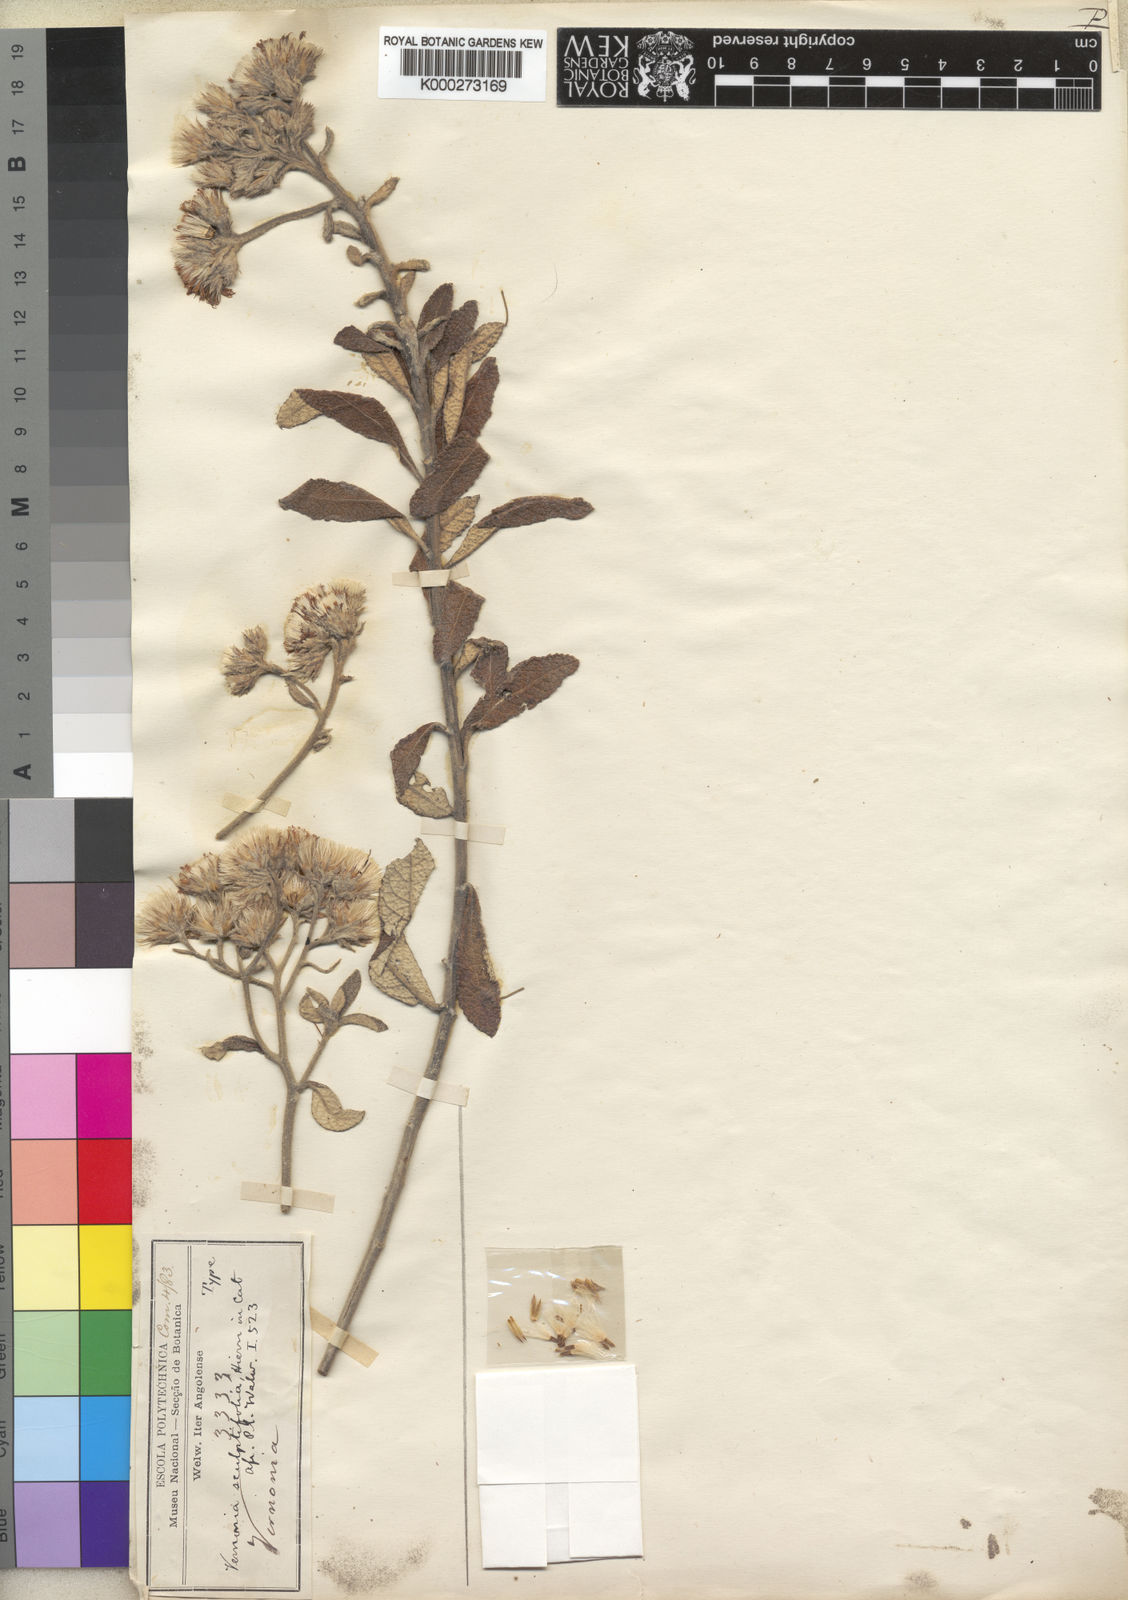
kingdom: Plantae
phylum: Tracheophyta
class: Magnoliopsida
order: Asterales
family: Asteraceae
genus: Vernonia
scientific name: Vernonia teucrioides
